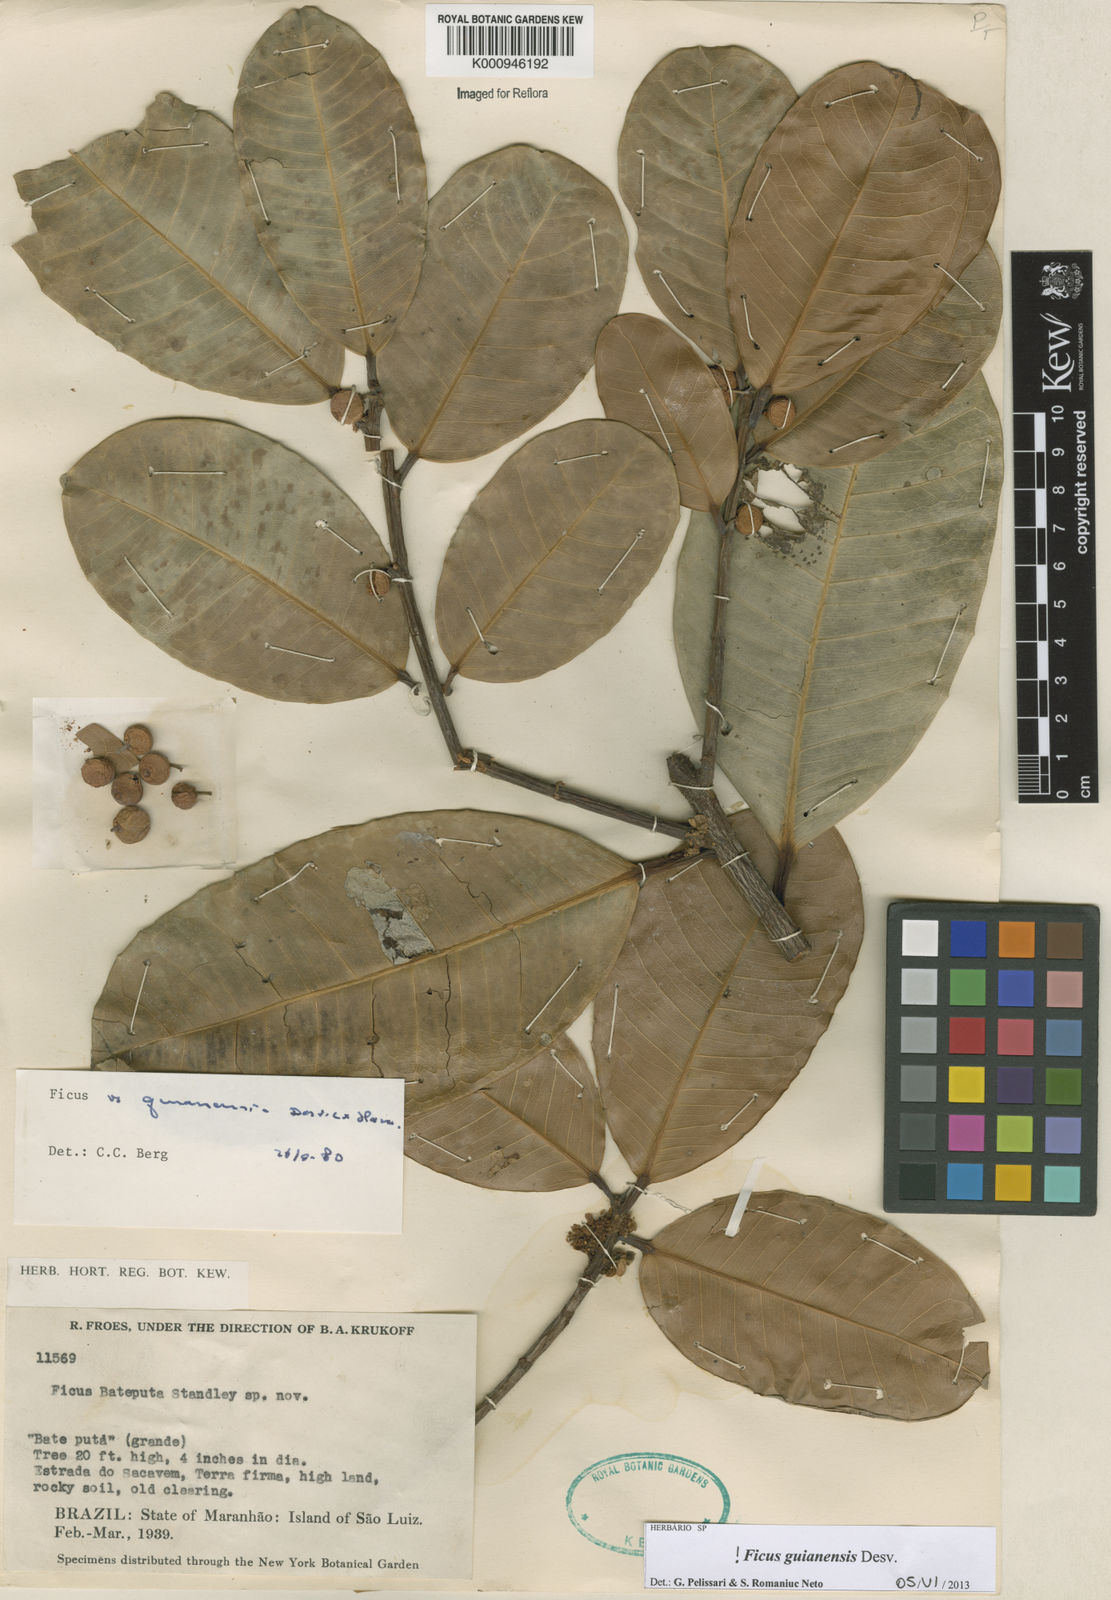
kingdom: Plantae
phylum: Tracheophyta
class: Magnoliopsida
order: Rosales
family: Moraceae
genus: Ficus
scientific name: Ficus americana
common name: Jamaican cherry fig
